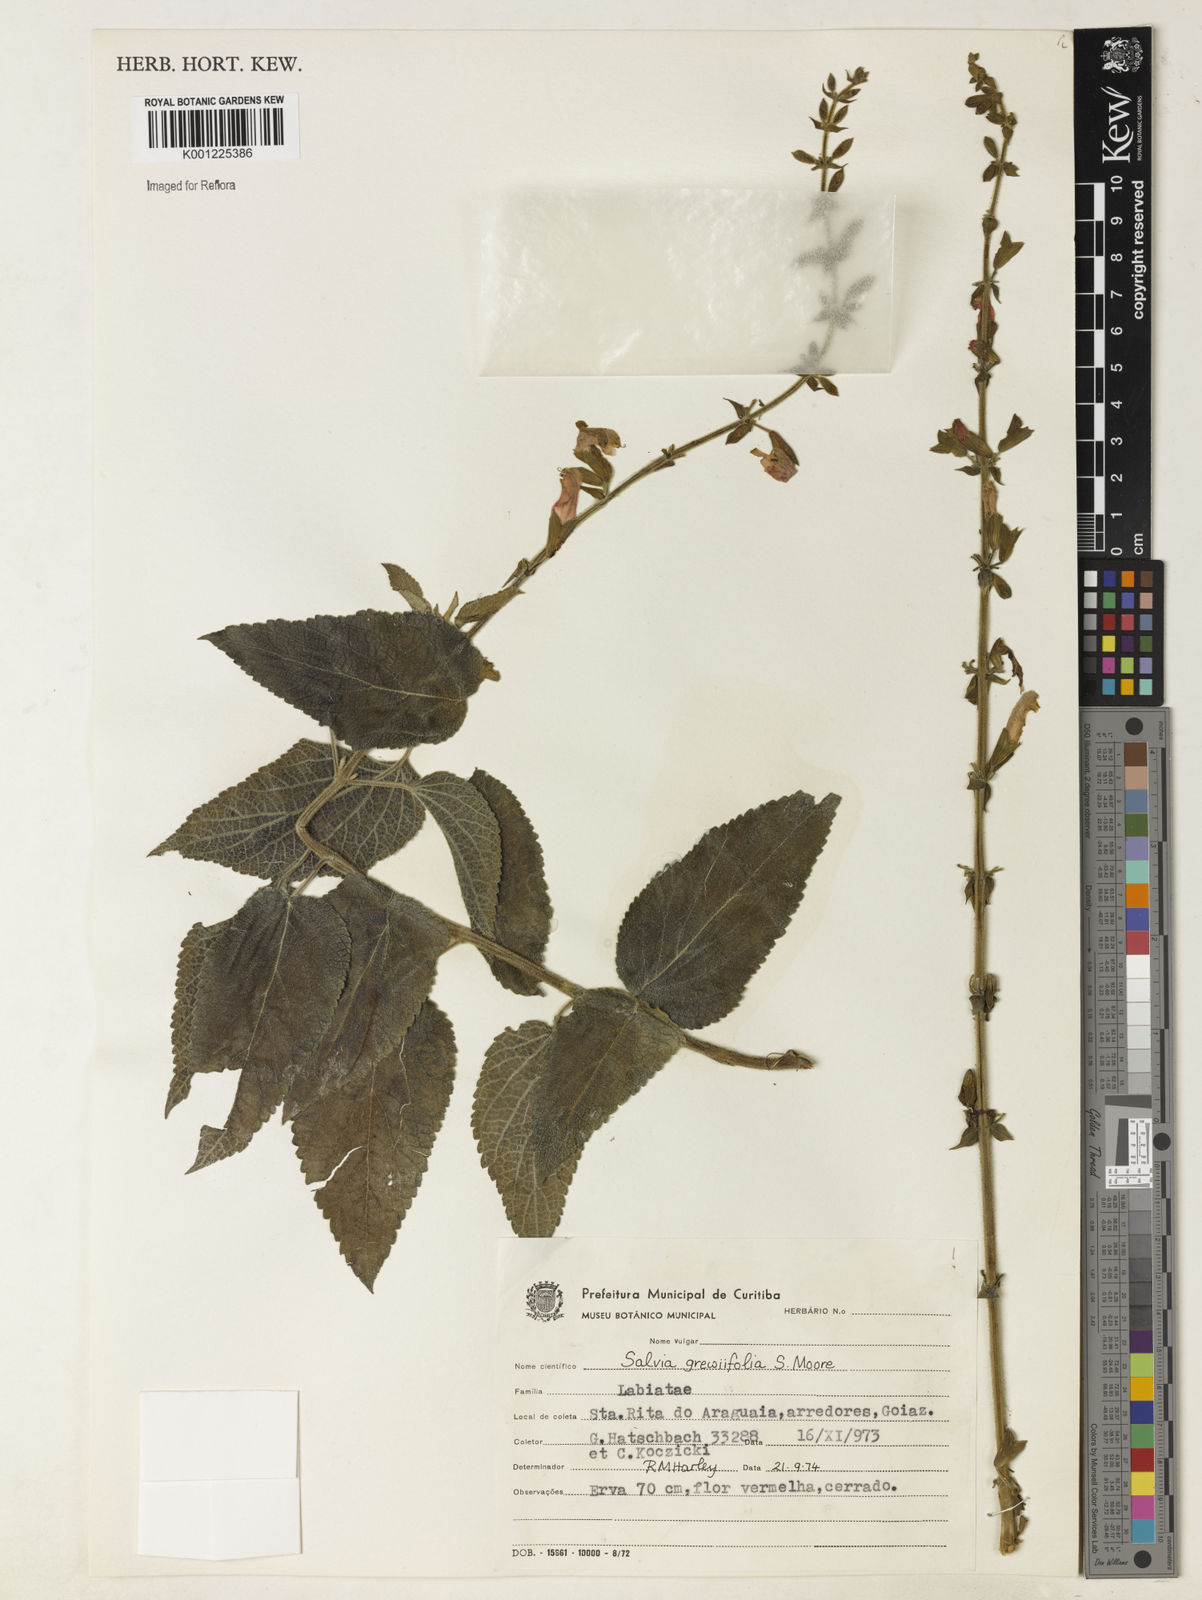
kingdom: Plantae
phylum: Tracheophyta
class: Magnoliopsida
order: Lamiales
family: Lamiaceae
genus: Salvia
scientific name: Salvia grewiifolia
